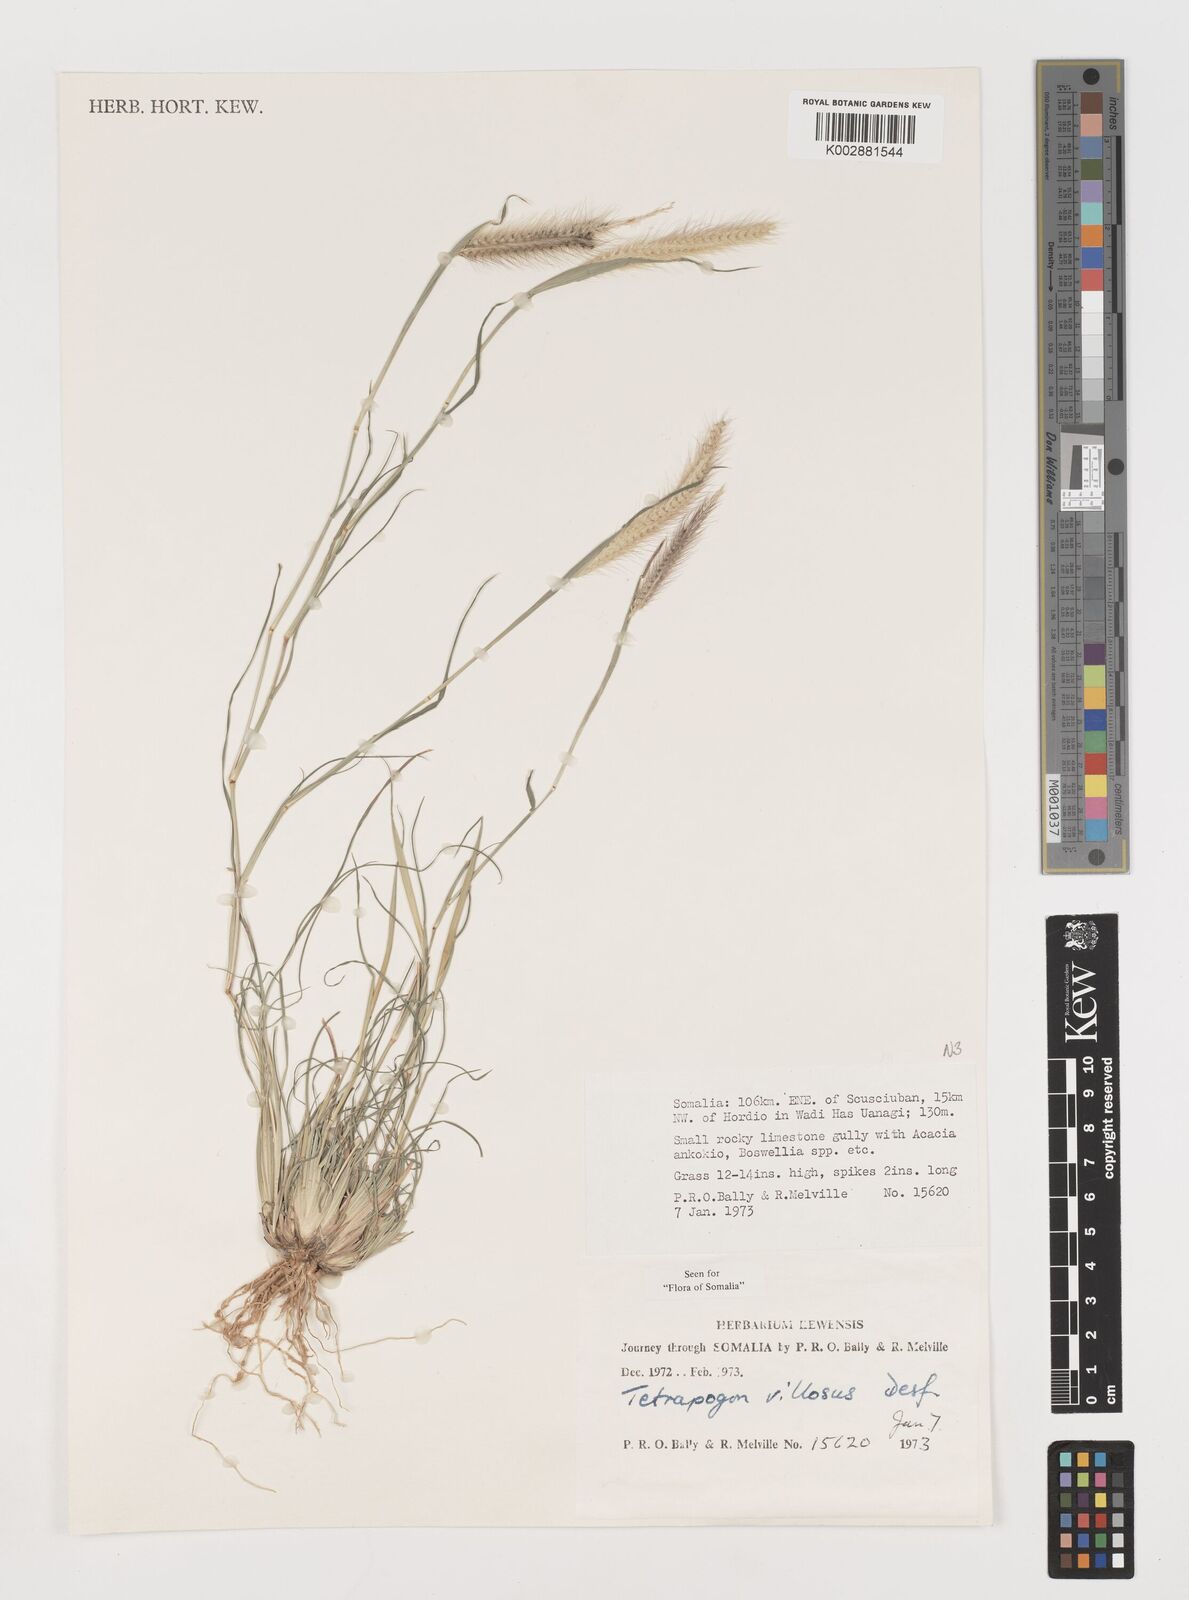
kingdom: Plantae
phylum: Tracheophyta
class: Liliopsida
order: Poales
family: Poaceae
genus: Tetrapogon
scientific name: Tetrapogon villosus
